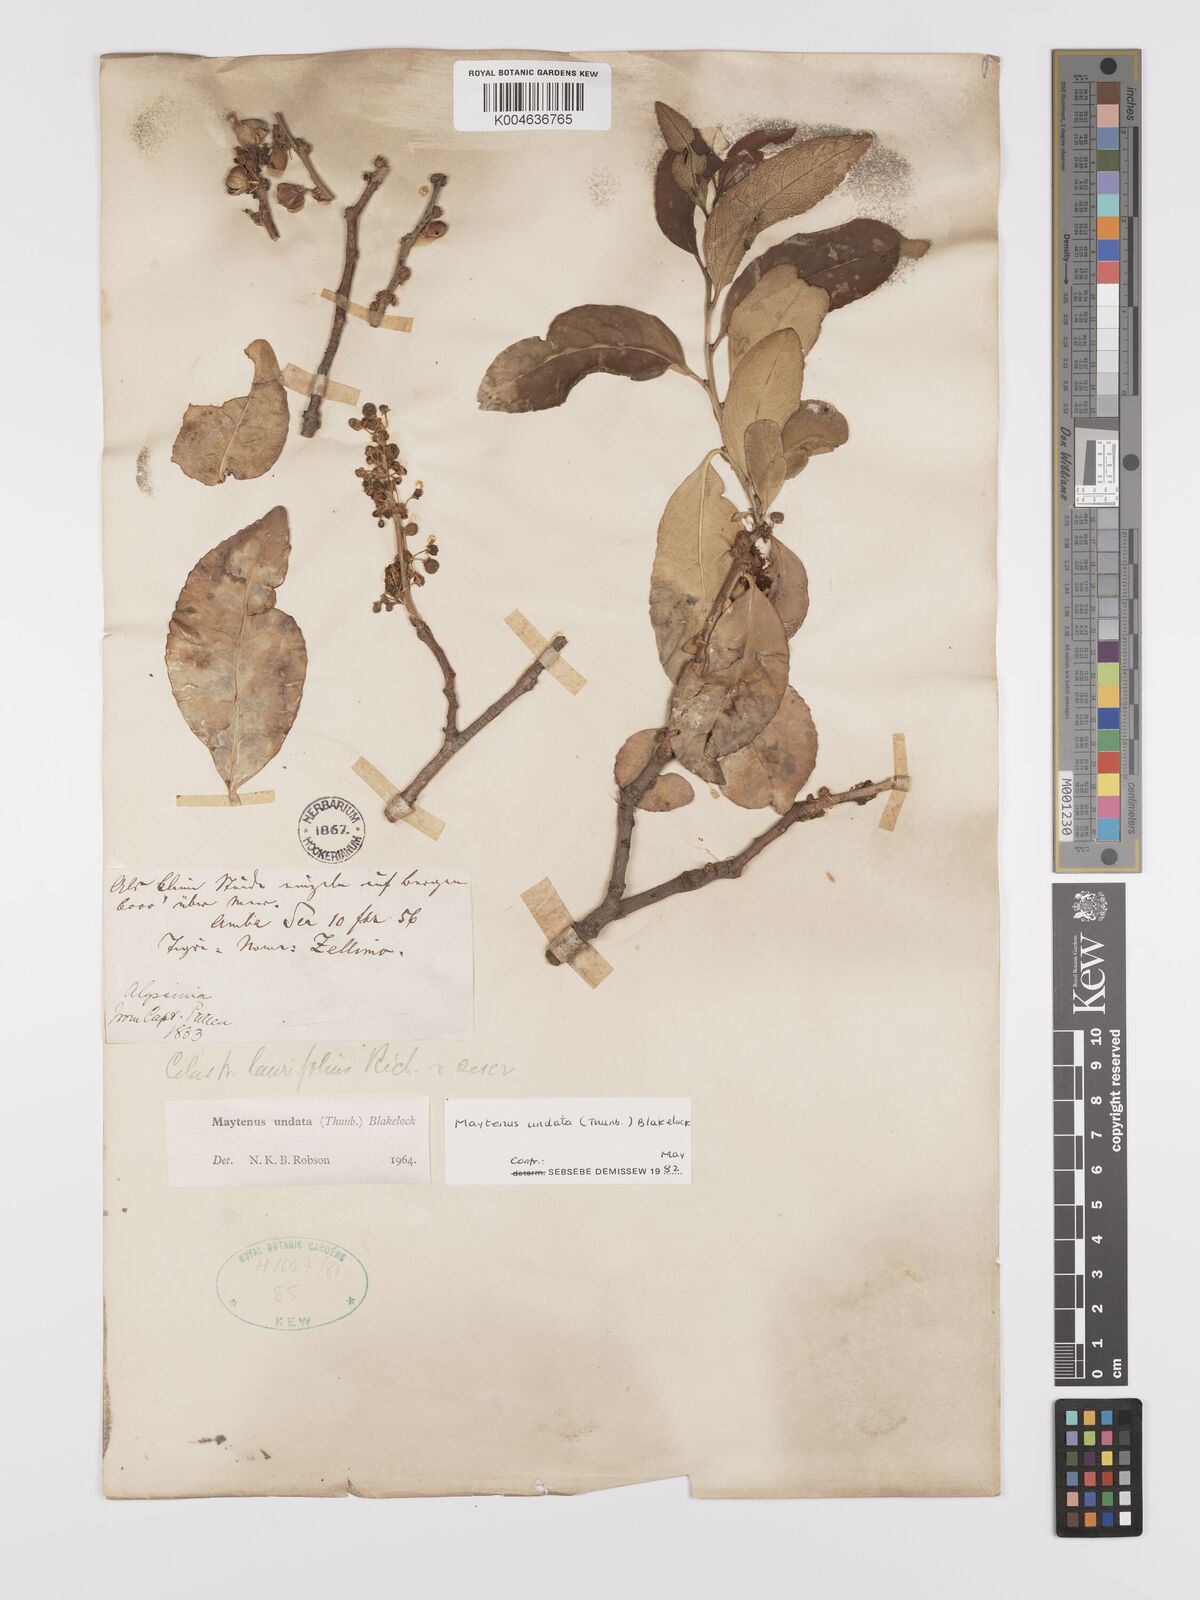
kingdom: Plantae
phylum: Tracheophyta
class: Magnoliopsida
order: Celastrales
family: Celastraceae
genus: Gymnosporia
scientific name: Gymnosporia undata
